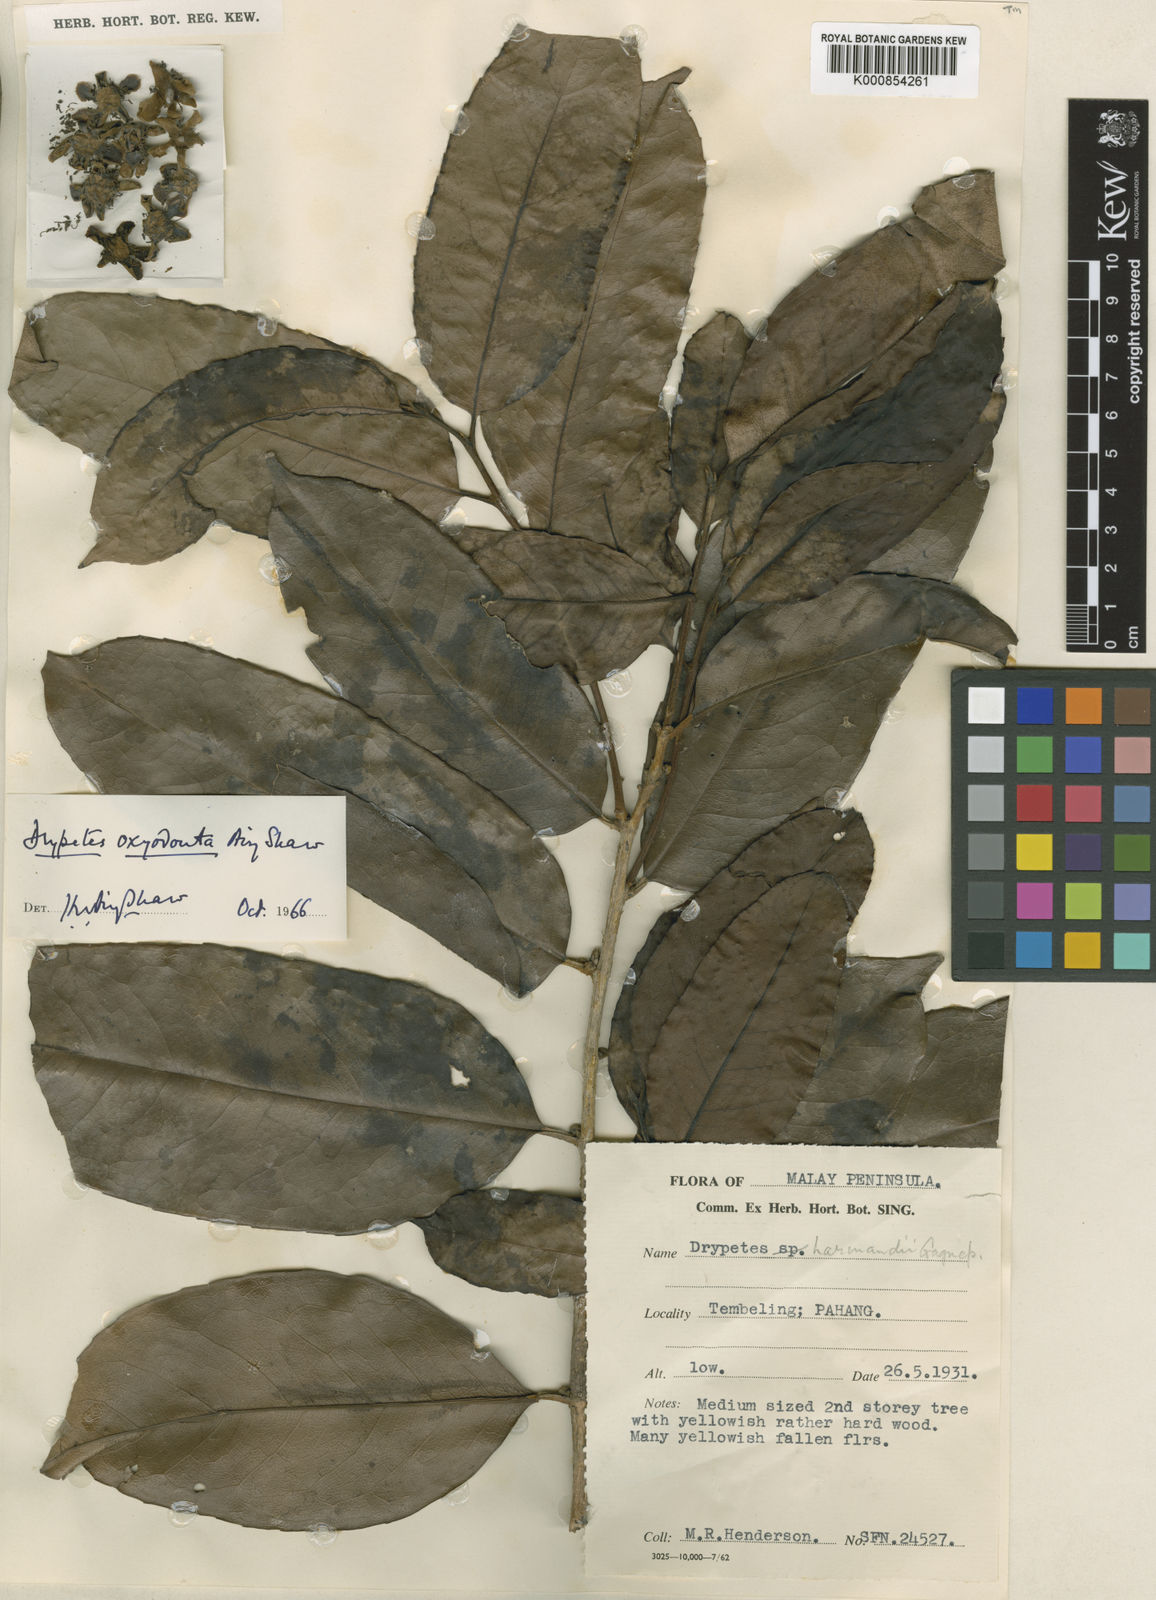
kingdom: Plantae
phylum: Tracheophyta
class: Magnoliopsida
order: Malpighiales
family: Putranjivaceae
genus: Drypetes
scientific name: Drypetes oxyodonta
